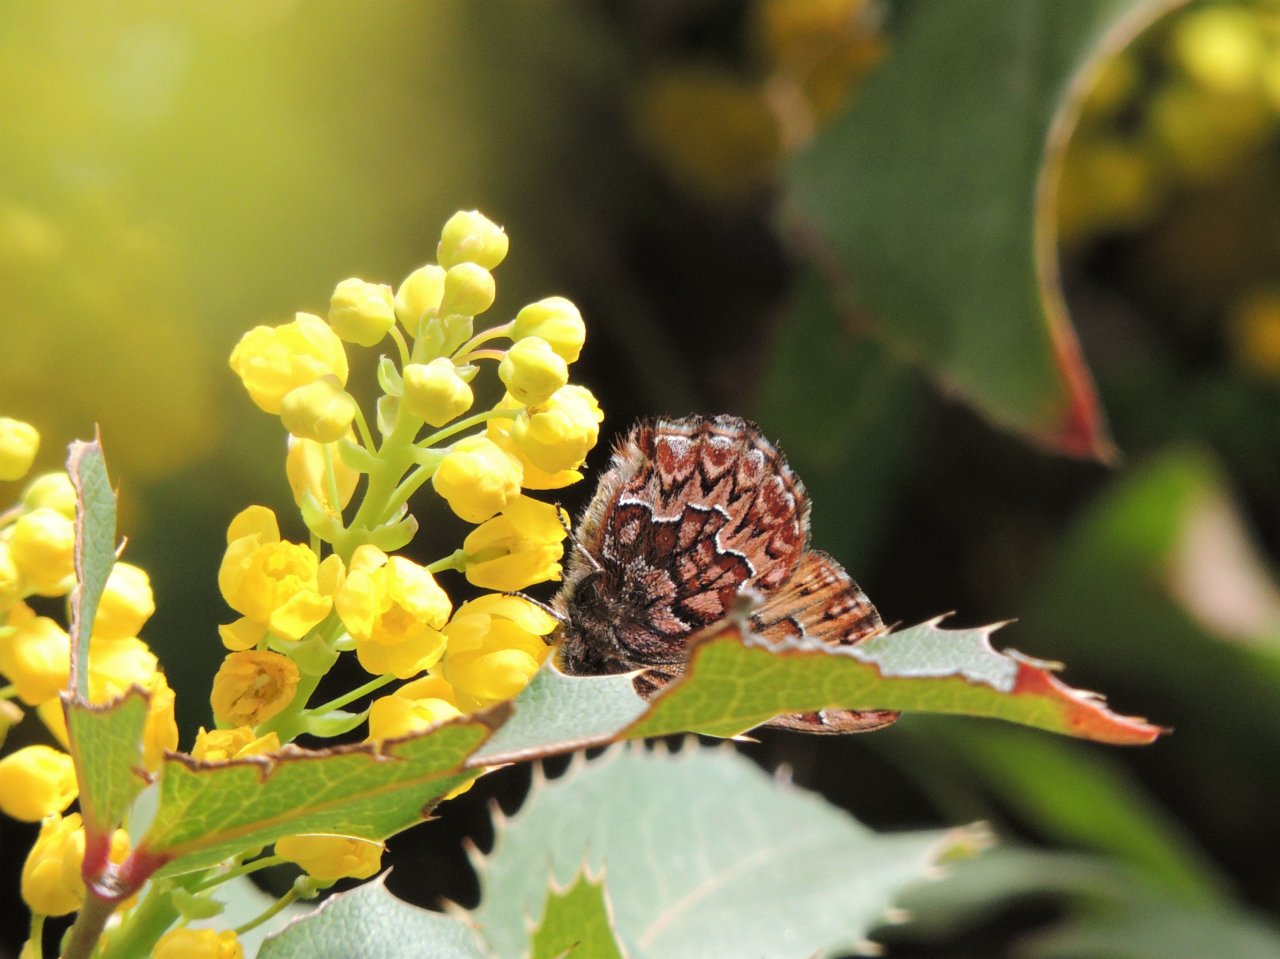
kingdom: Animalia
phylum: Arthropoda
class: Insecta
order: Lepidoptera
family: Lycaenidae
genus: Incisalia
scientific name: Incisalia eryphon
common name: Western Pine Elfin
